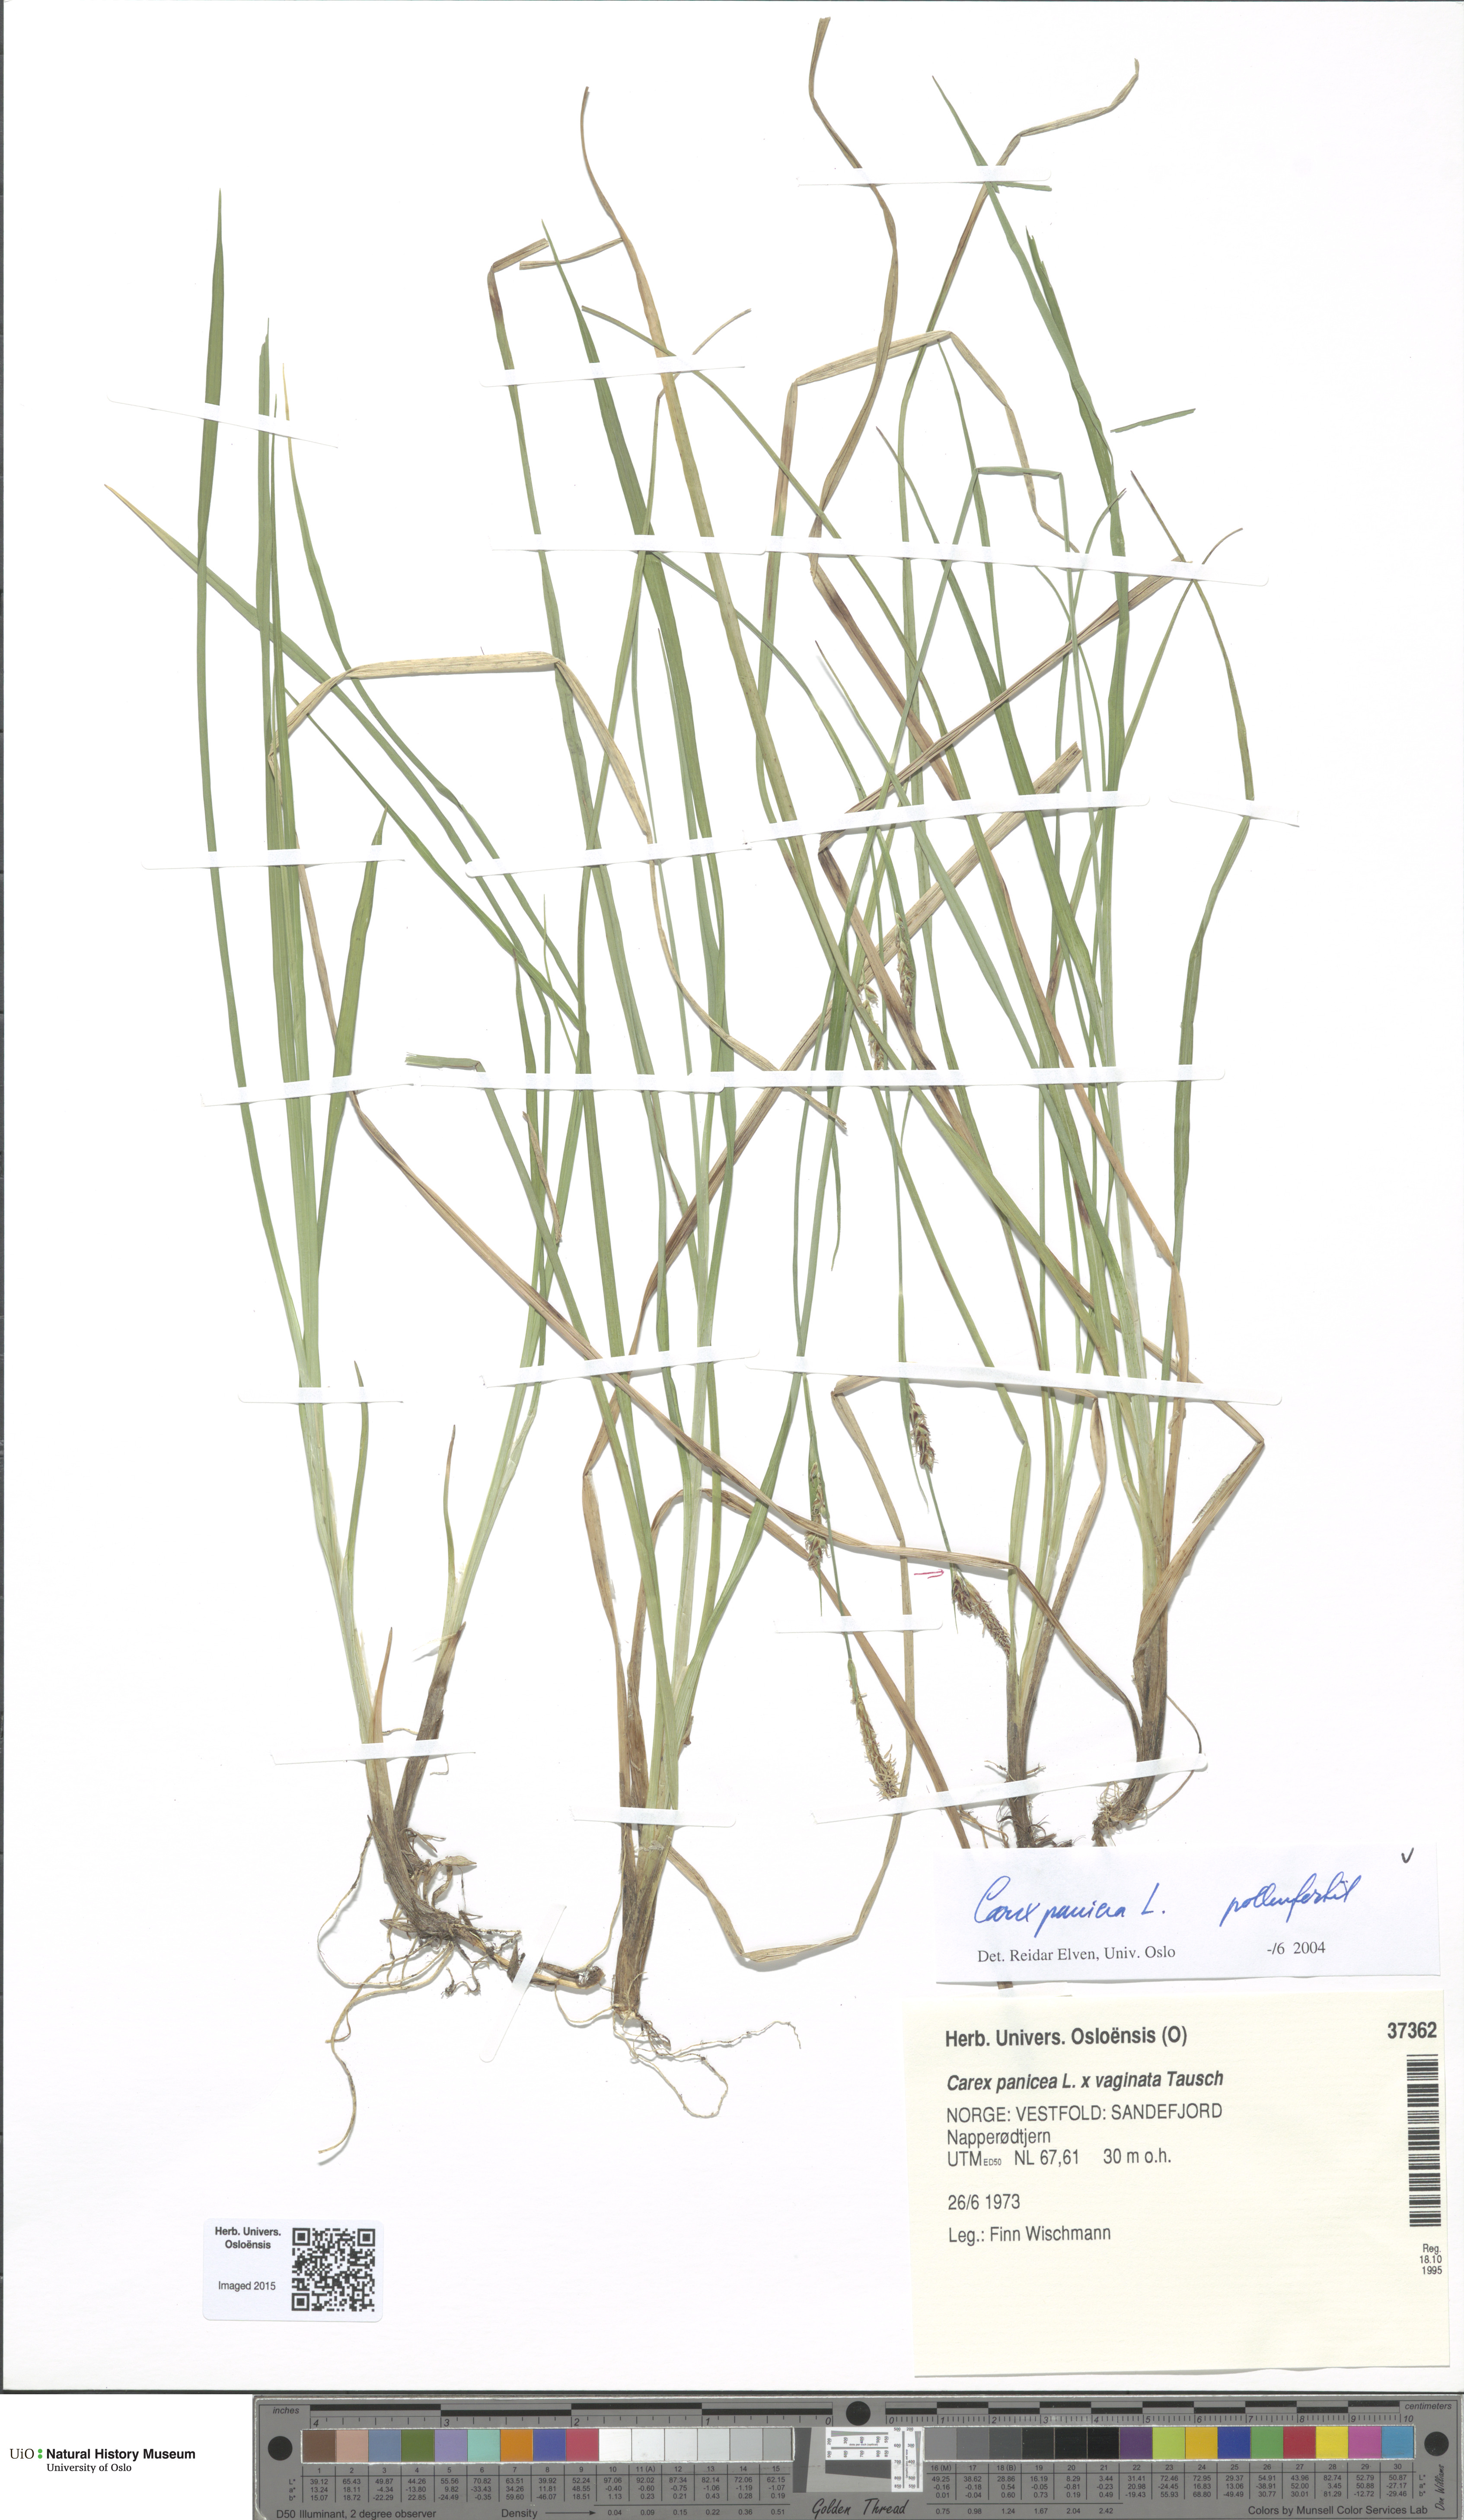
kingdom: Plantae
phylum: Tracheophyta
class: Liliopsida
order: Poales
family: Cyperaceae
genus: Carex
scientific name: Carex panicea
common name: Carnation sedge
